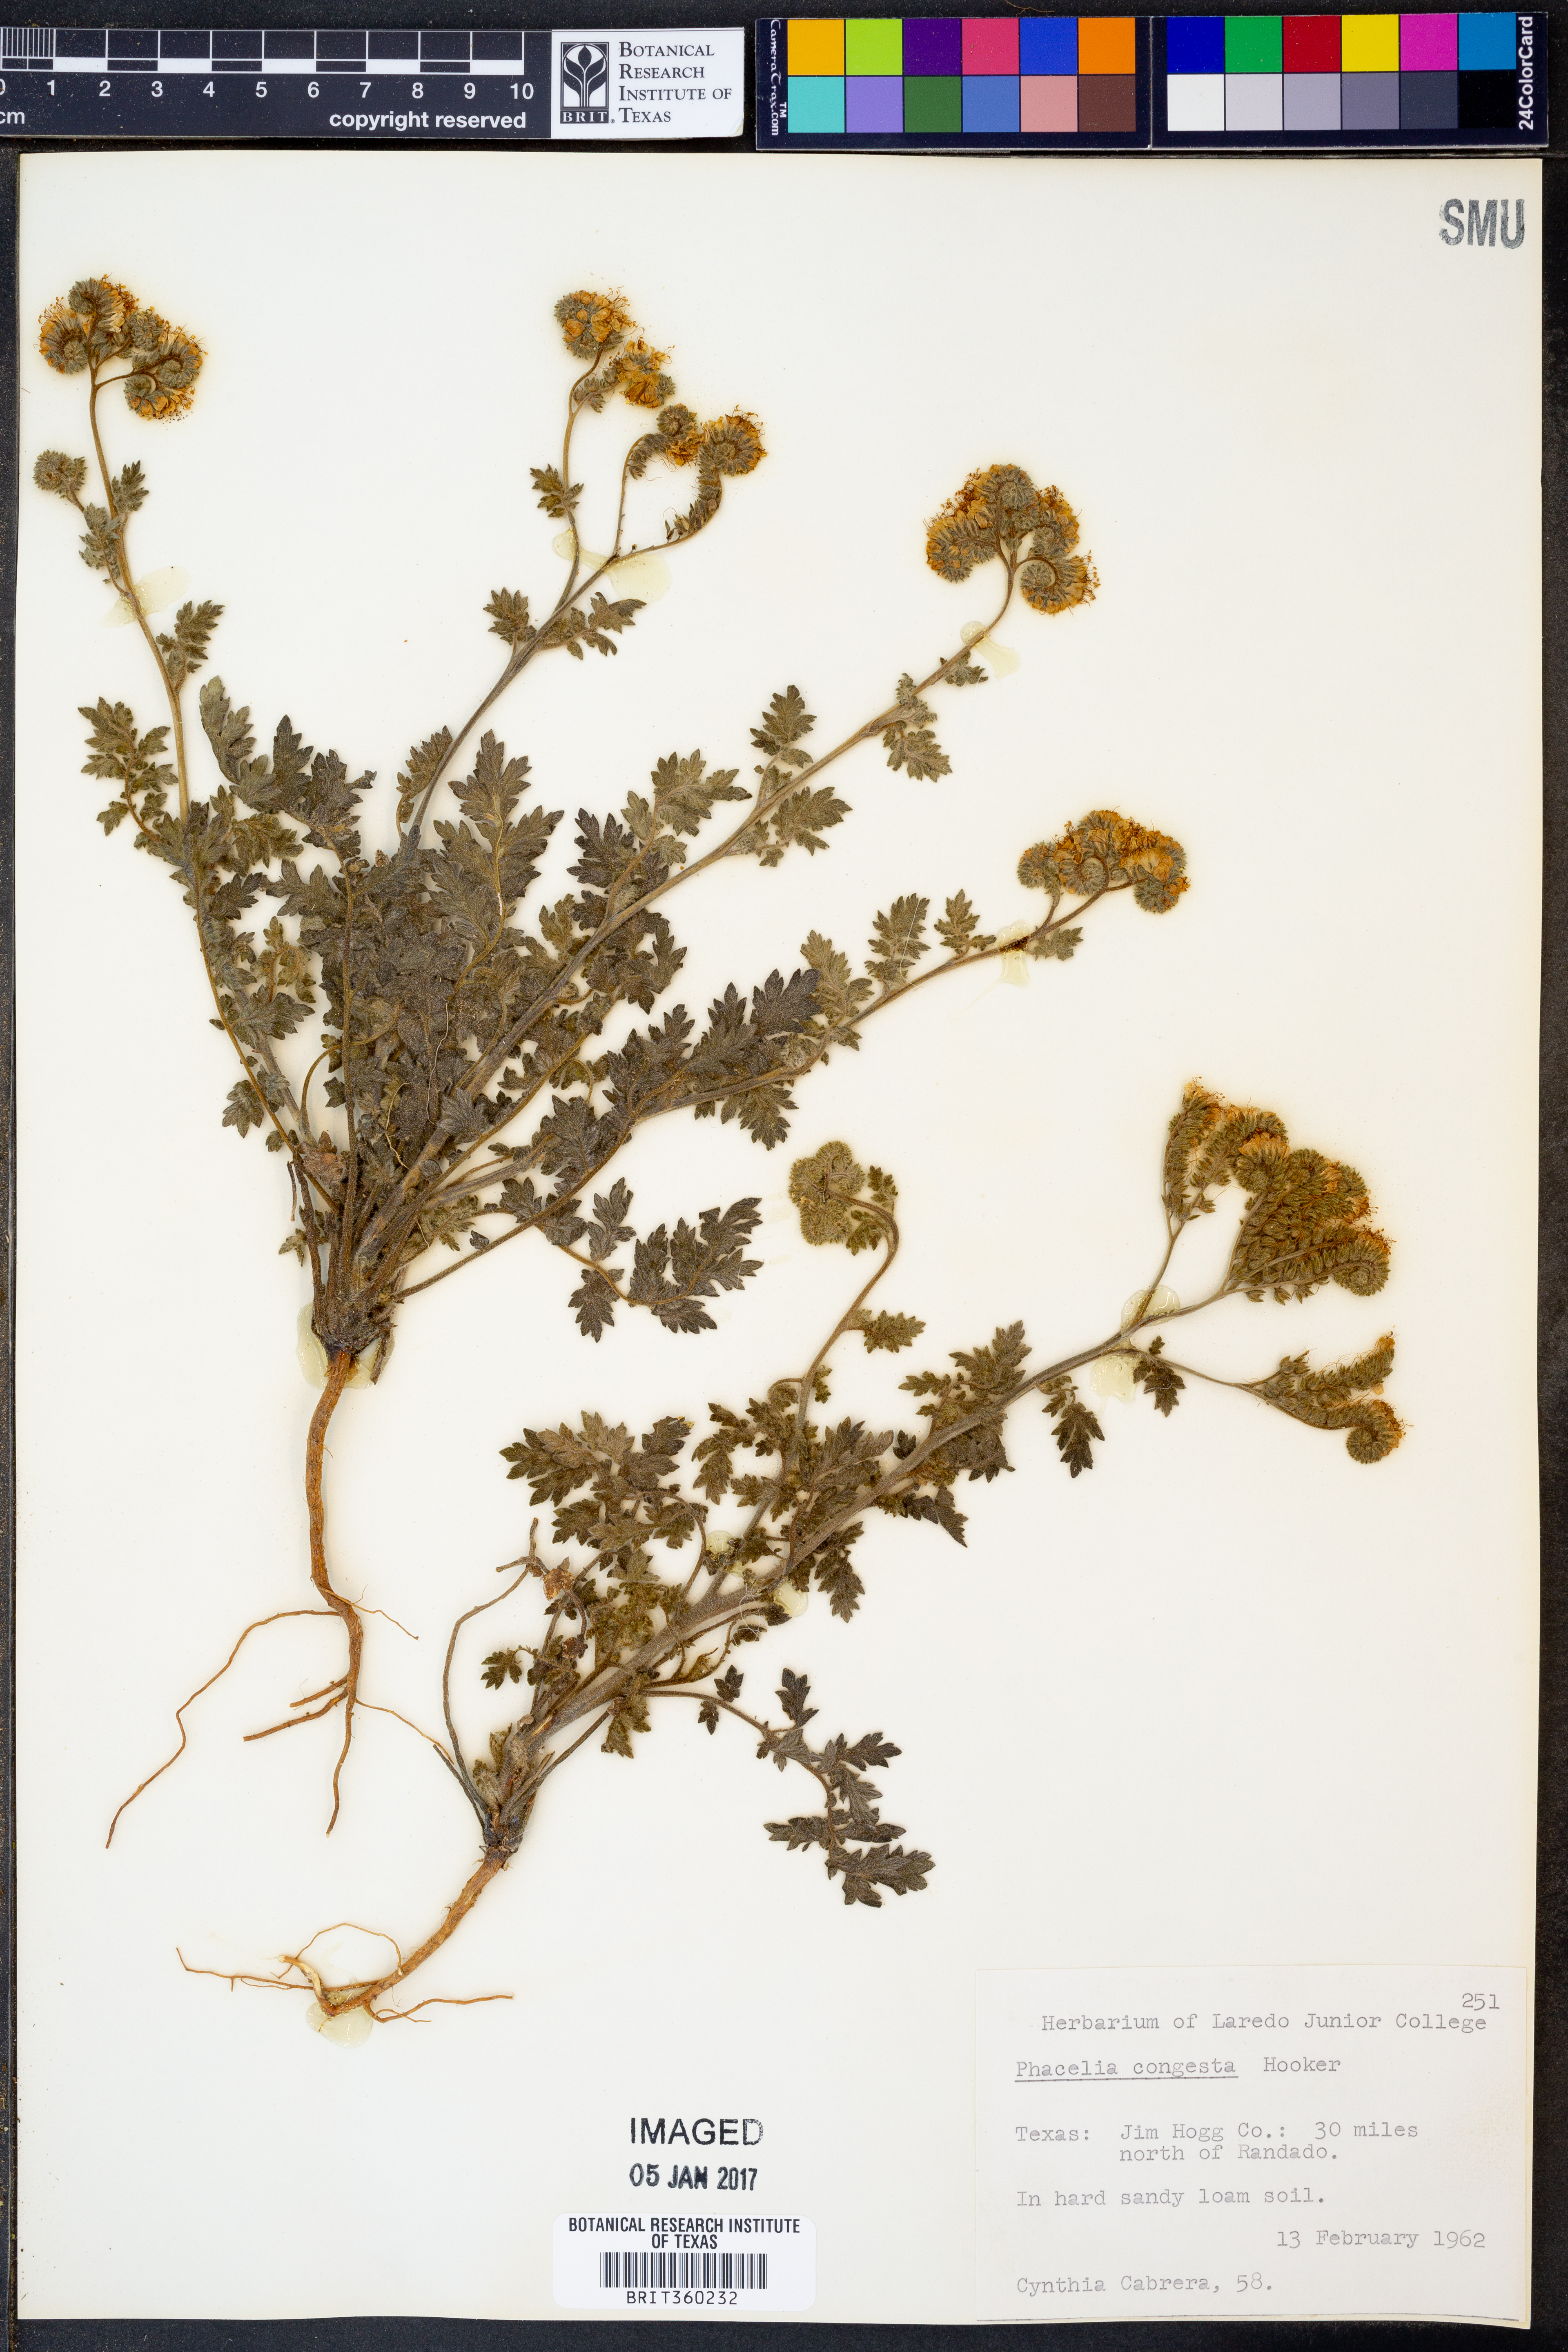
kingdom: Plantae
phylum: Tracheophyta
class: Magnoliopsida
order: Boraginales
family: Hydrophyllaceae
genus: Phacelia
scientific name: Phacelia congesta
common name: Blue curls
